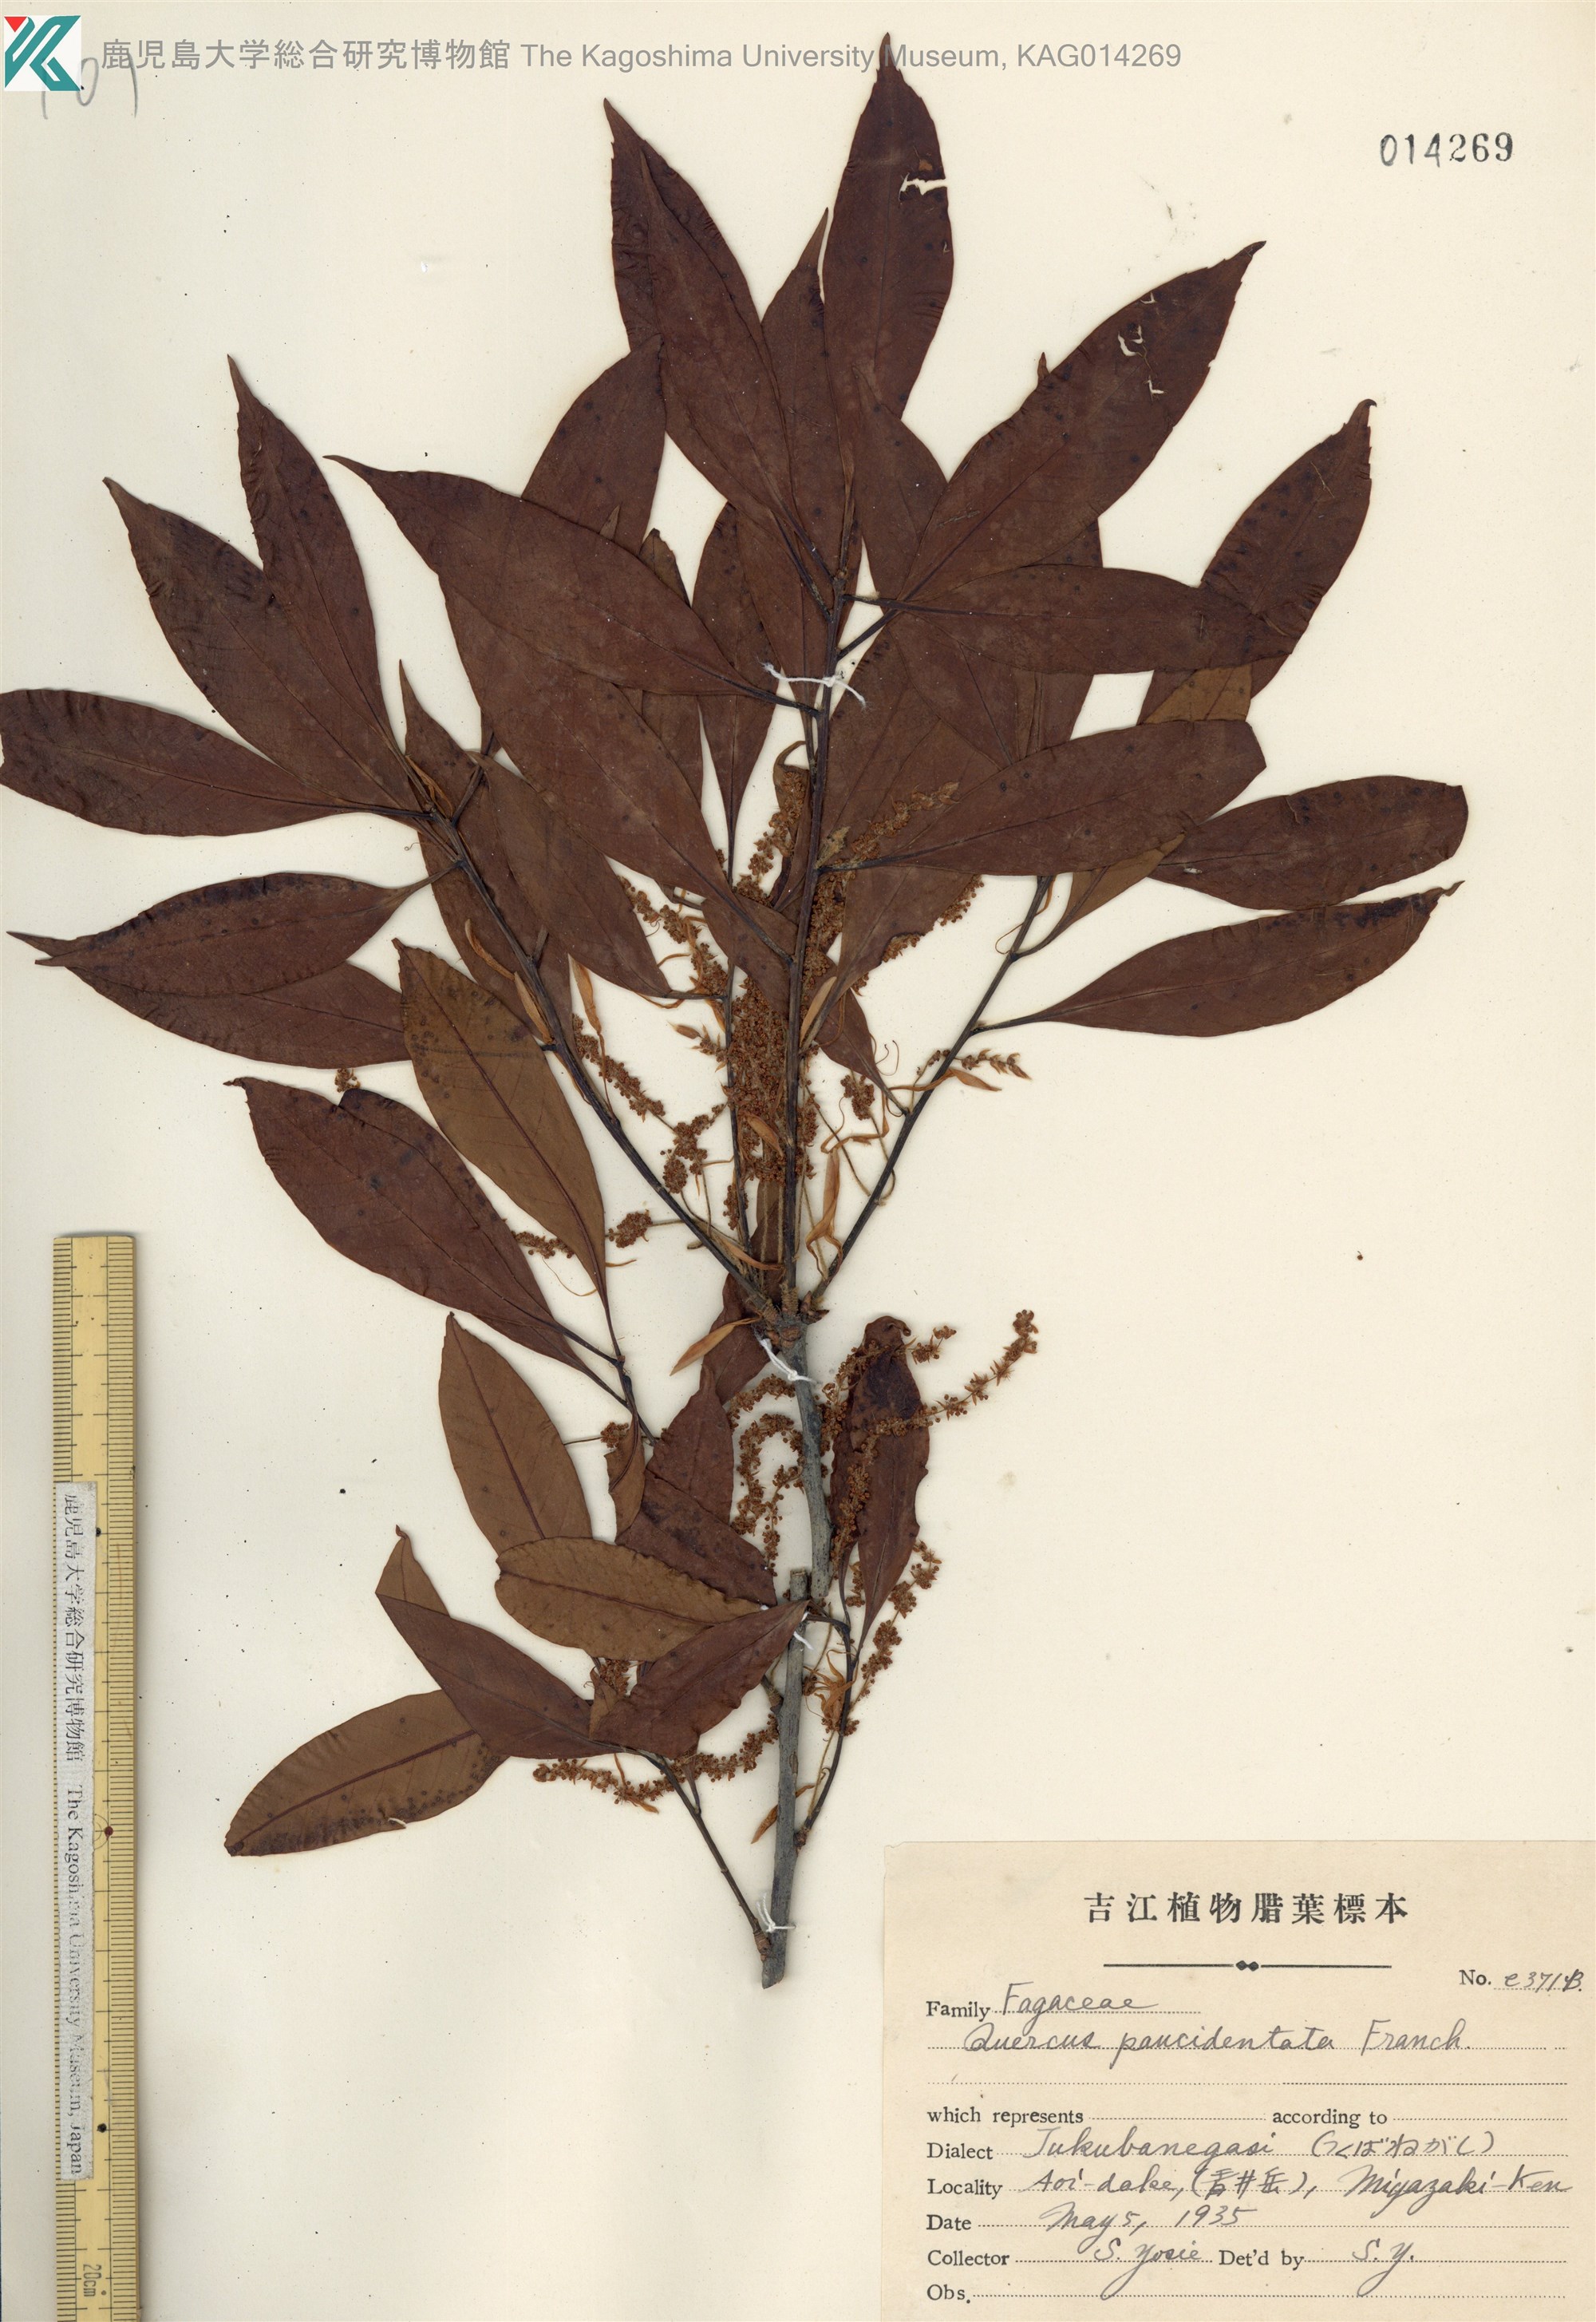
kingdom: Plantae
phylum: Tracheophyta
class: Magnoliopsida
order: Fagales
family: Fagaceae
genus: Quercus
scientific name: Quercus sessilifolia
